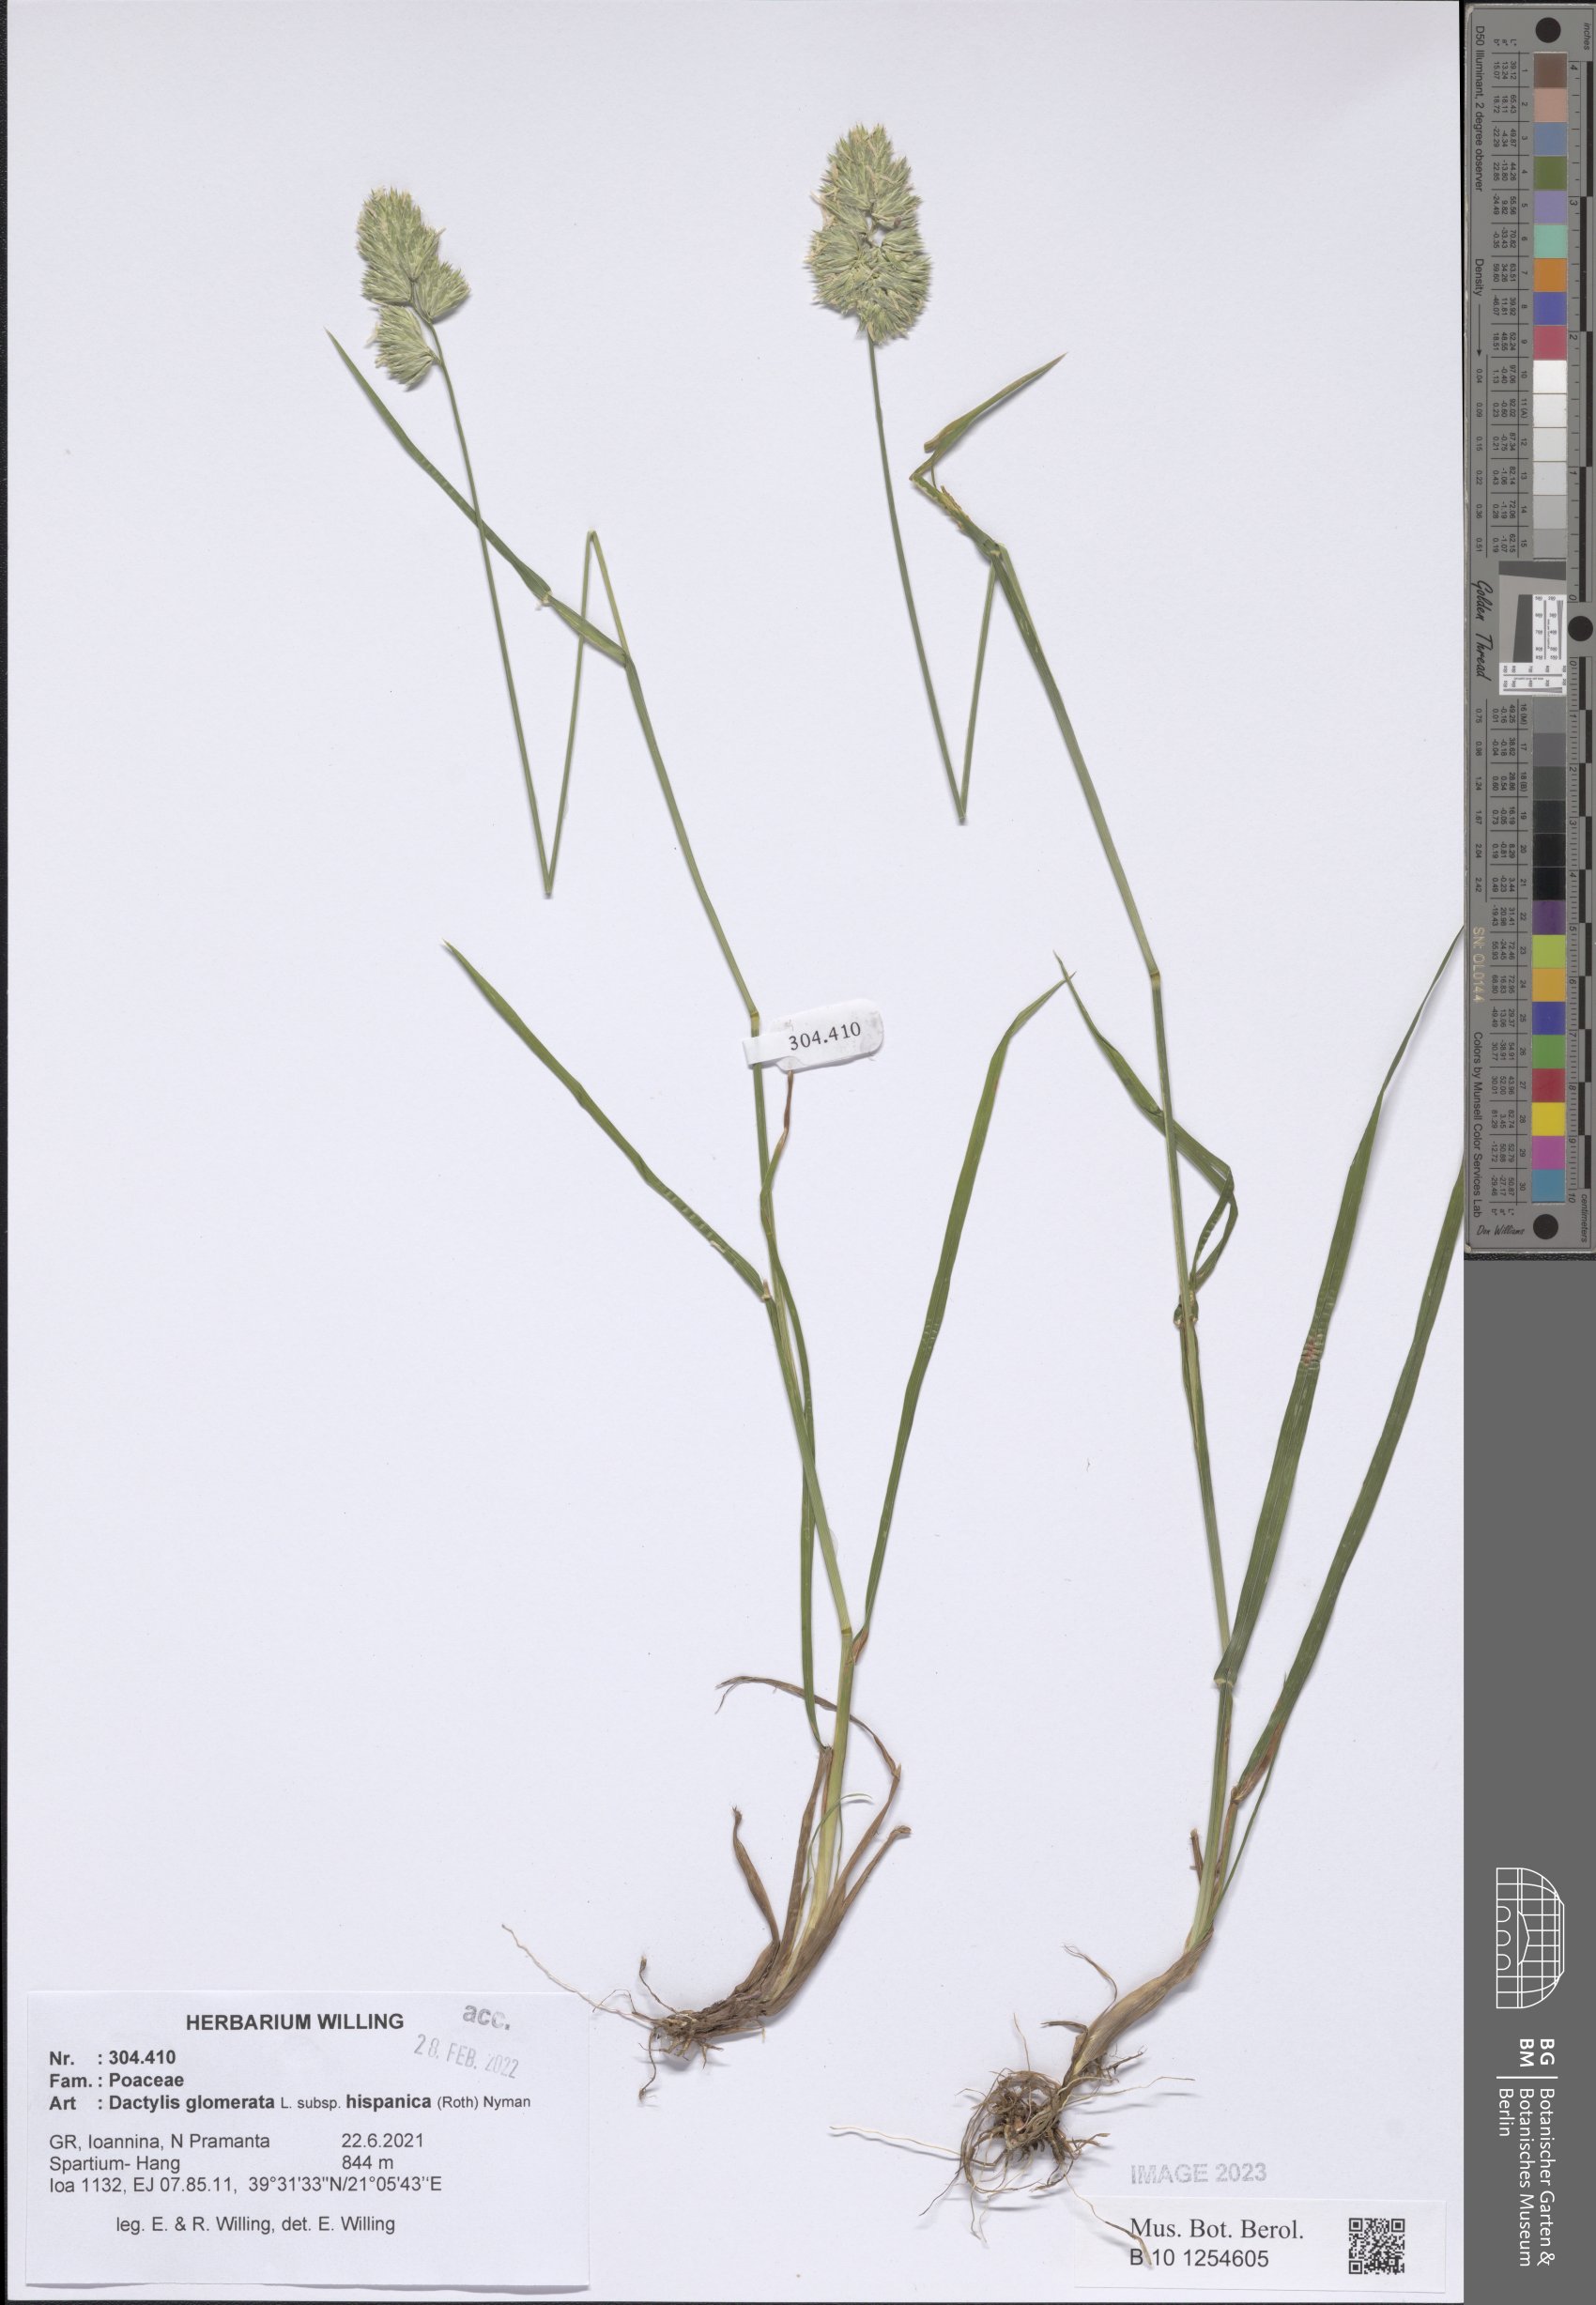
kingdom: Plantae
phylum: Tracheophyta
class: Liliopsida
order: Poales
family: Poaceae
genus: Dactylis
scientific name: Dactylis glomerata
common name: Orchardgrass
